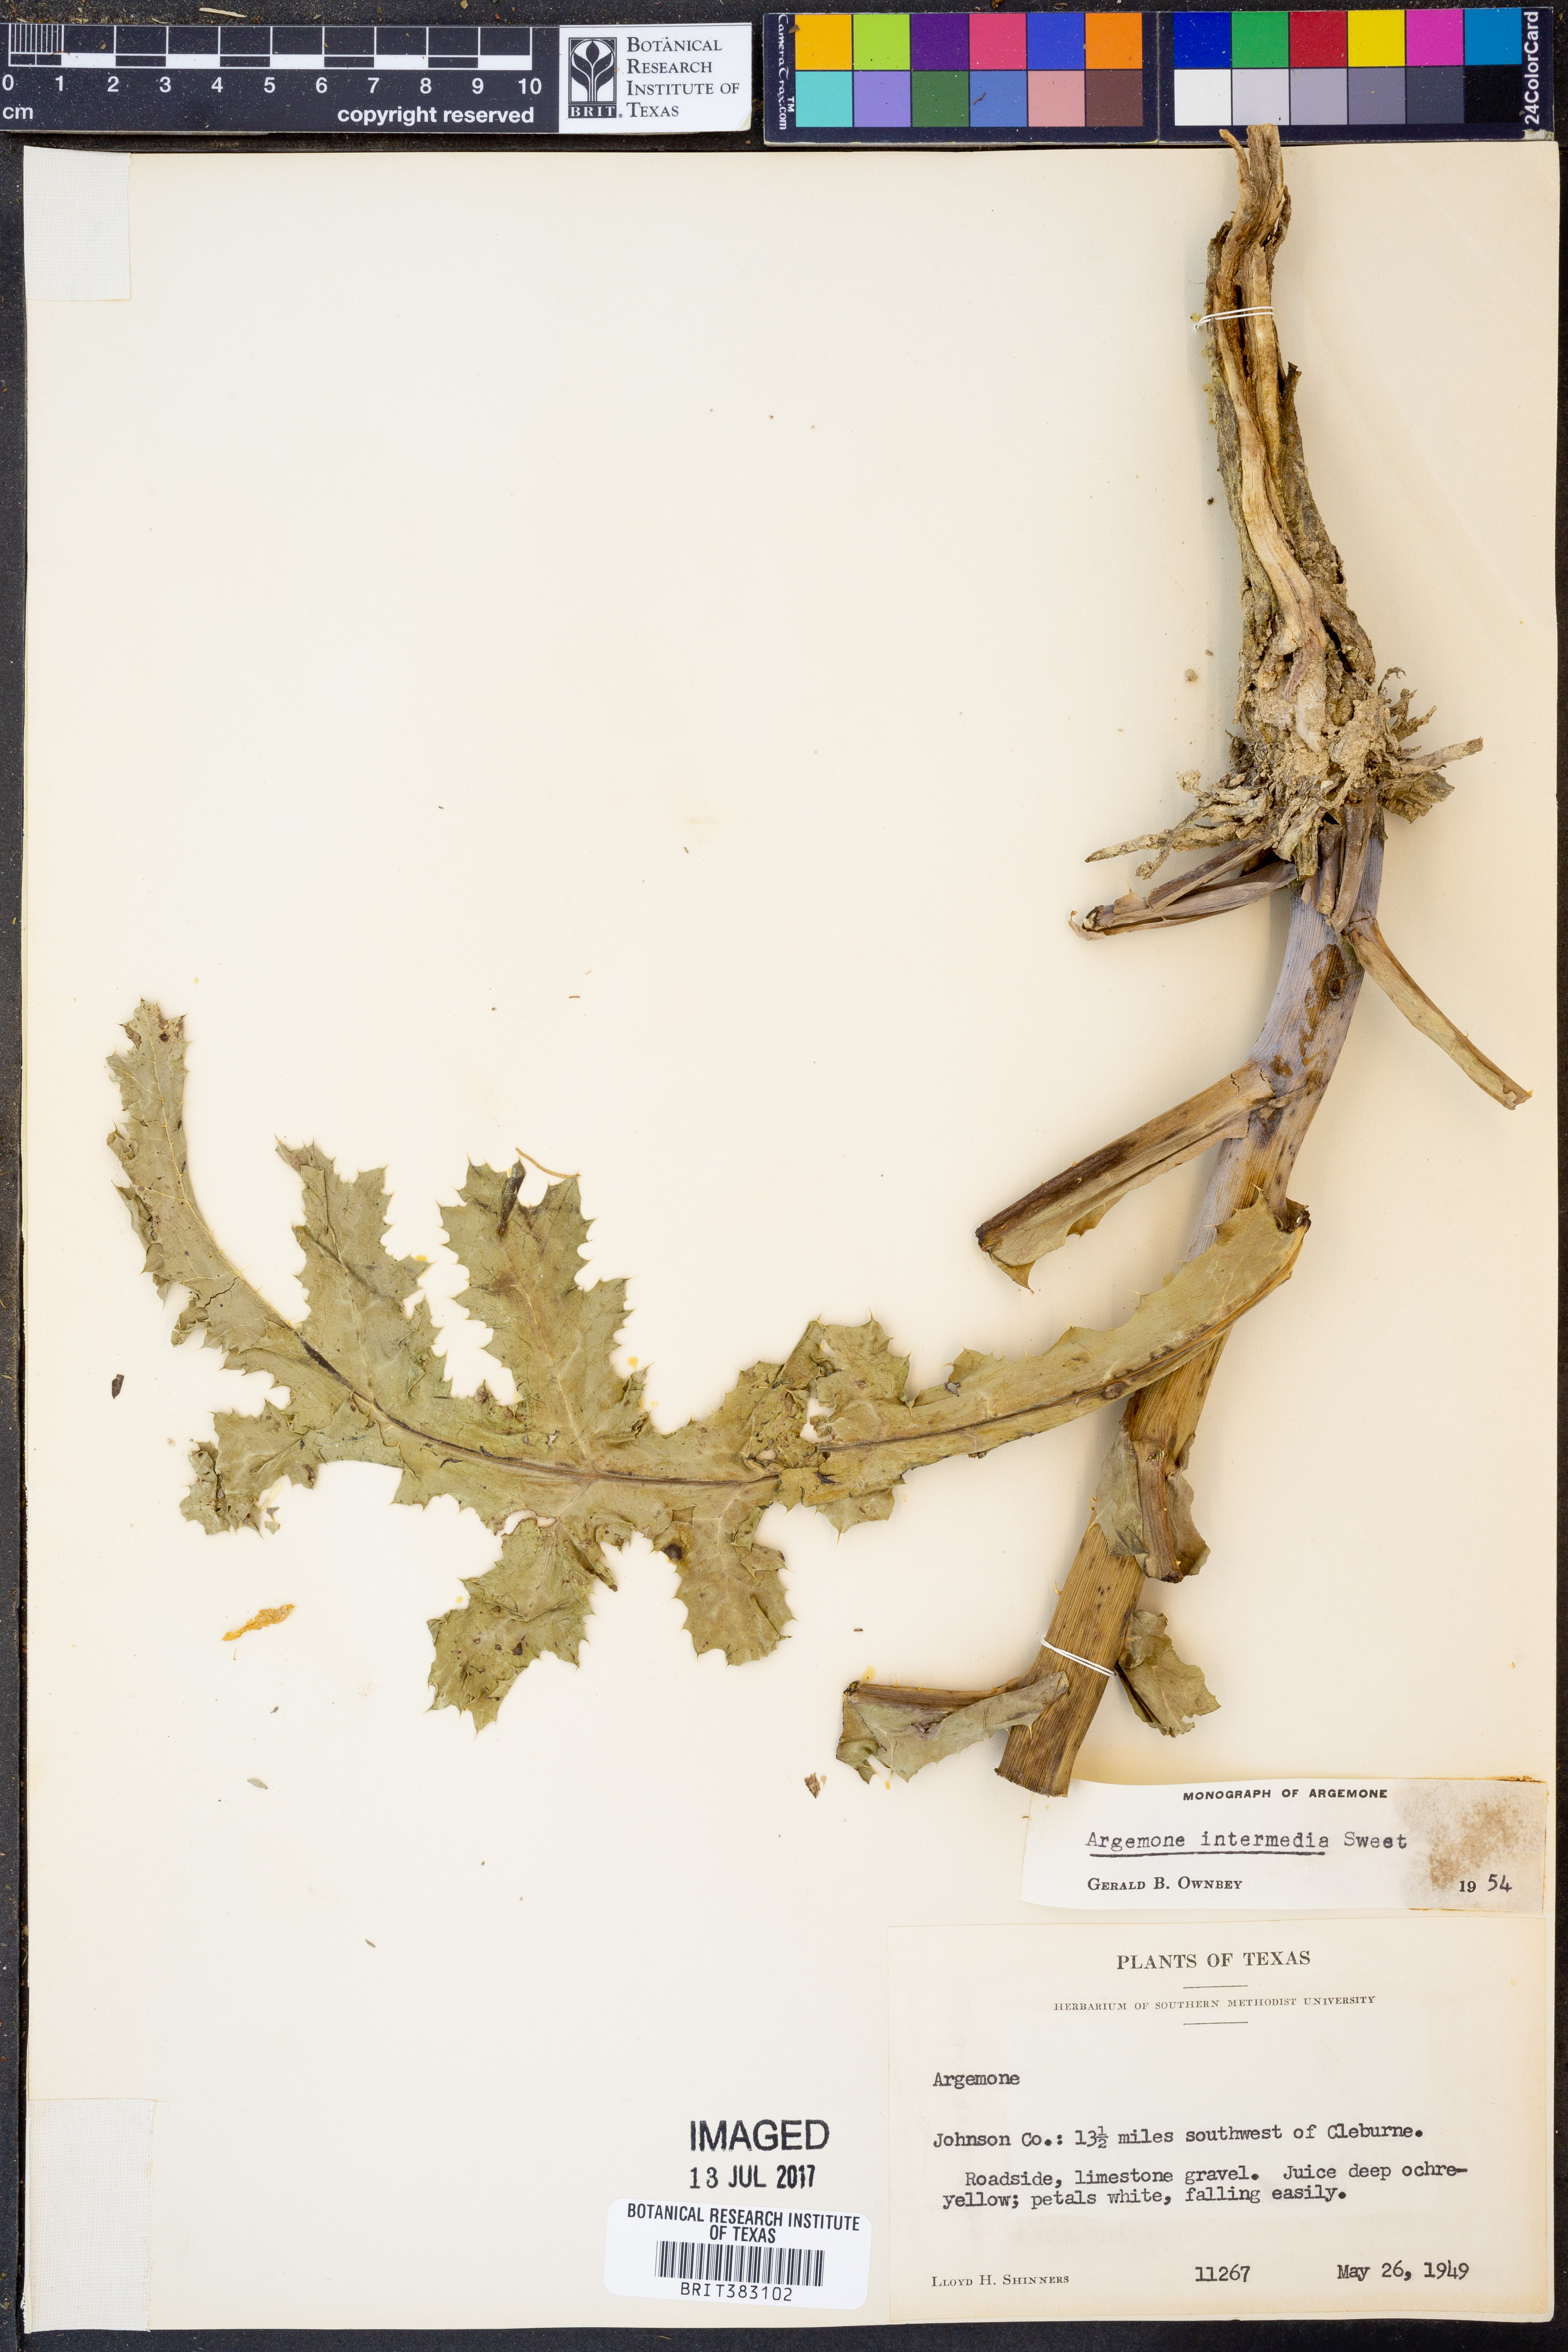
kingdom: Plantae
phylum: Tracheophyta
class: Magnoliopsida
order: Ranunculales
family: Papaveraceae
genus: Argemone
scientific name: Argemone intermedia
